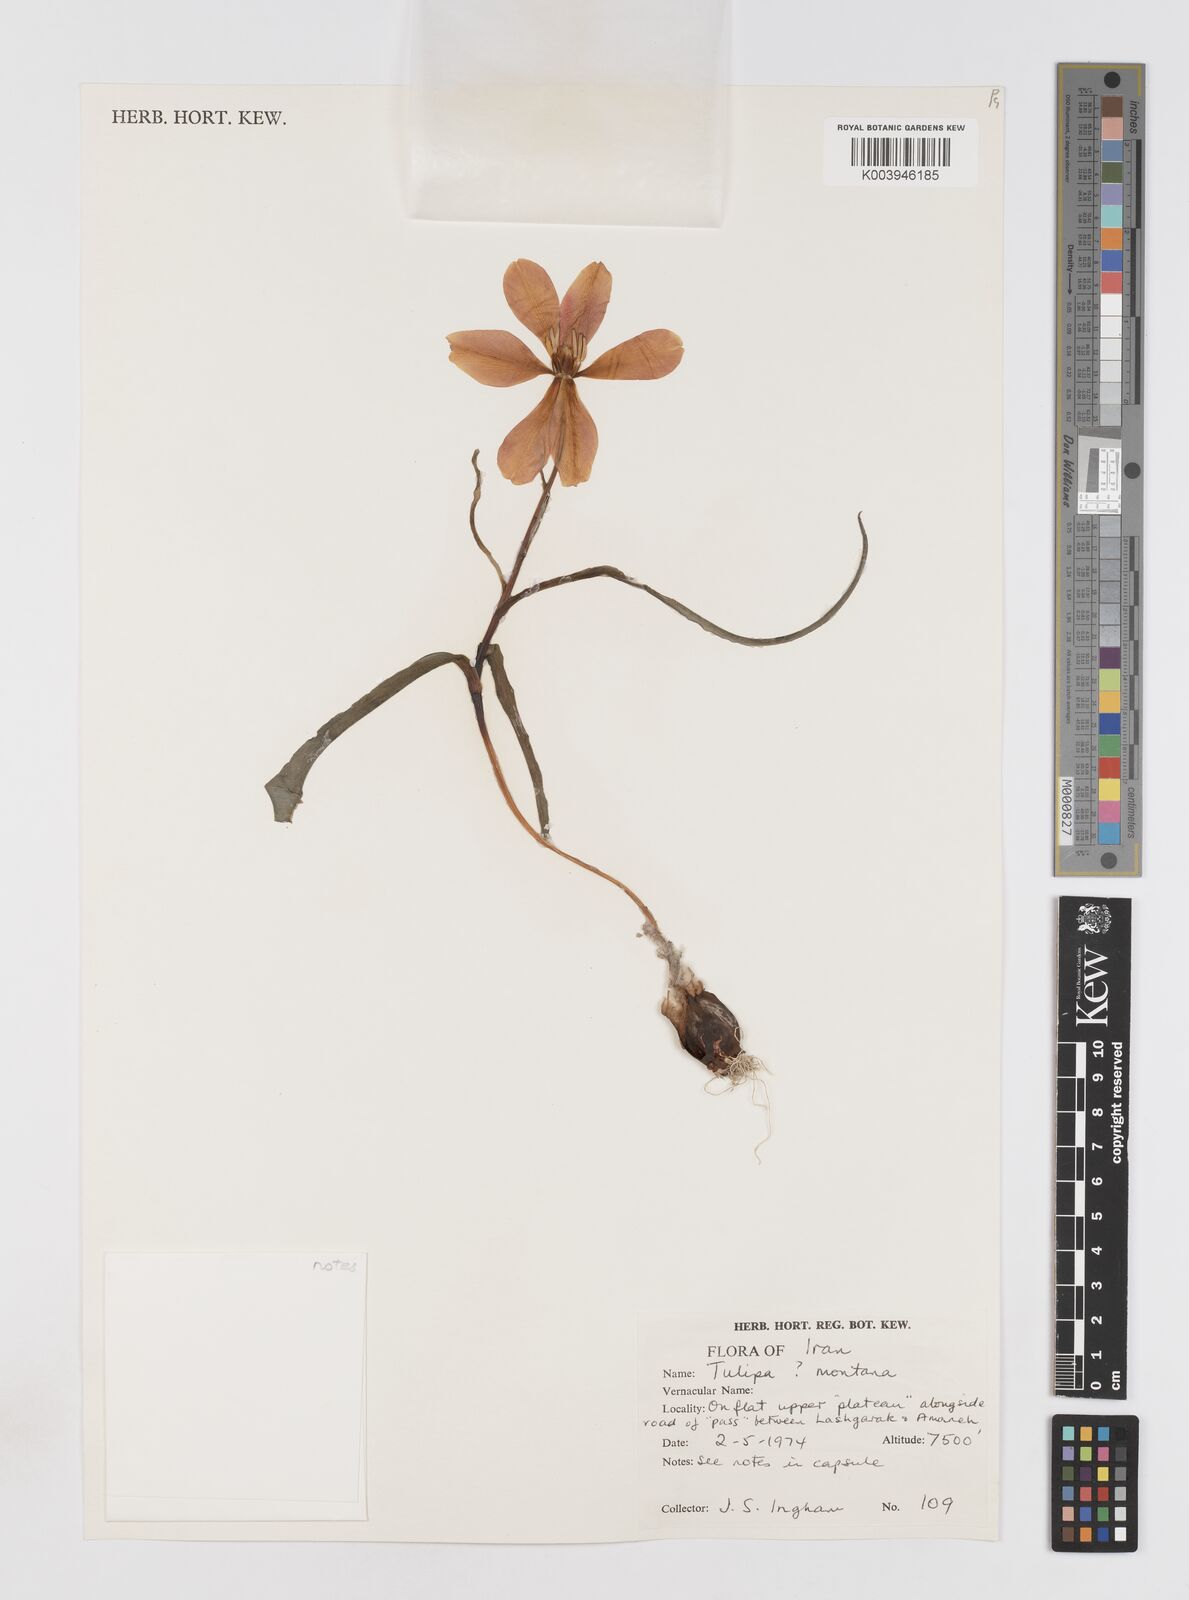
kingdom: Plantae
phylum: Tracheophyta
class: Liliopsida
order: Liliales
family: Liliaceae
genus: Tulipa
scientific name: Tulipa montana
